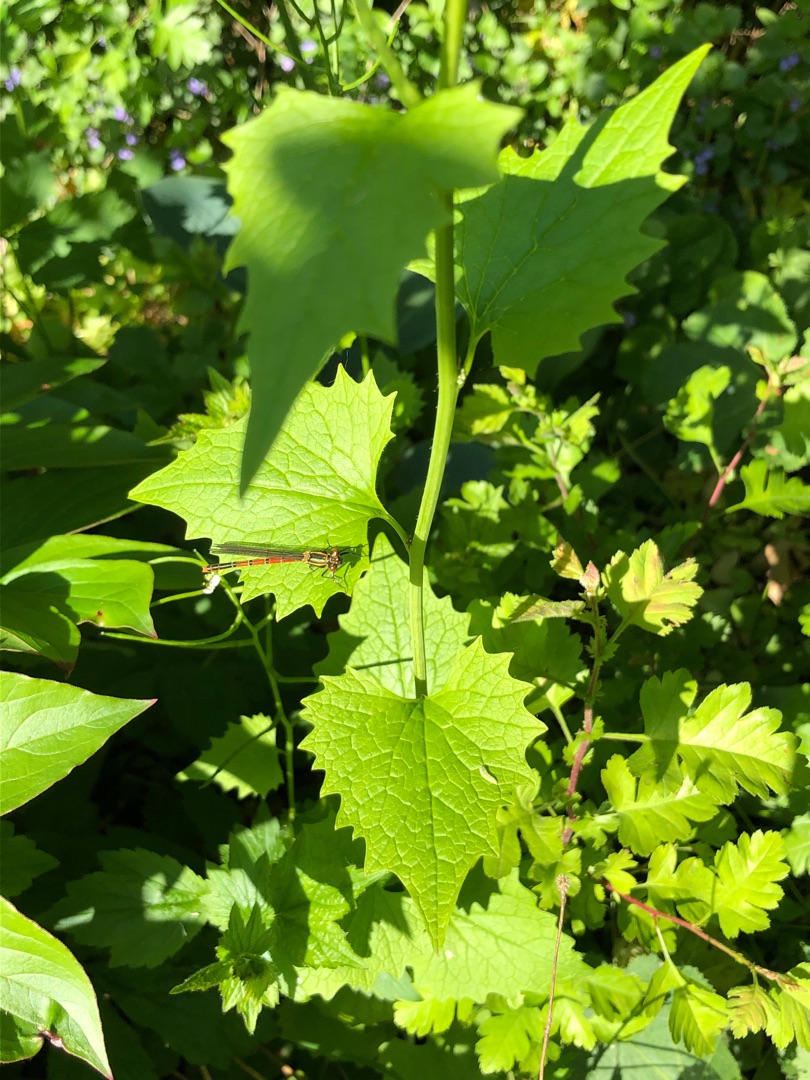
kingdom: Plantae
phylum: Tracheophyta
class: Magnoliopsida
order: Brassicales
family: Brassicaceae
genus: Alliaria
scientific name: Alliaria petiolata
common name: Løgkarse
